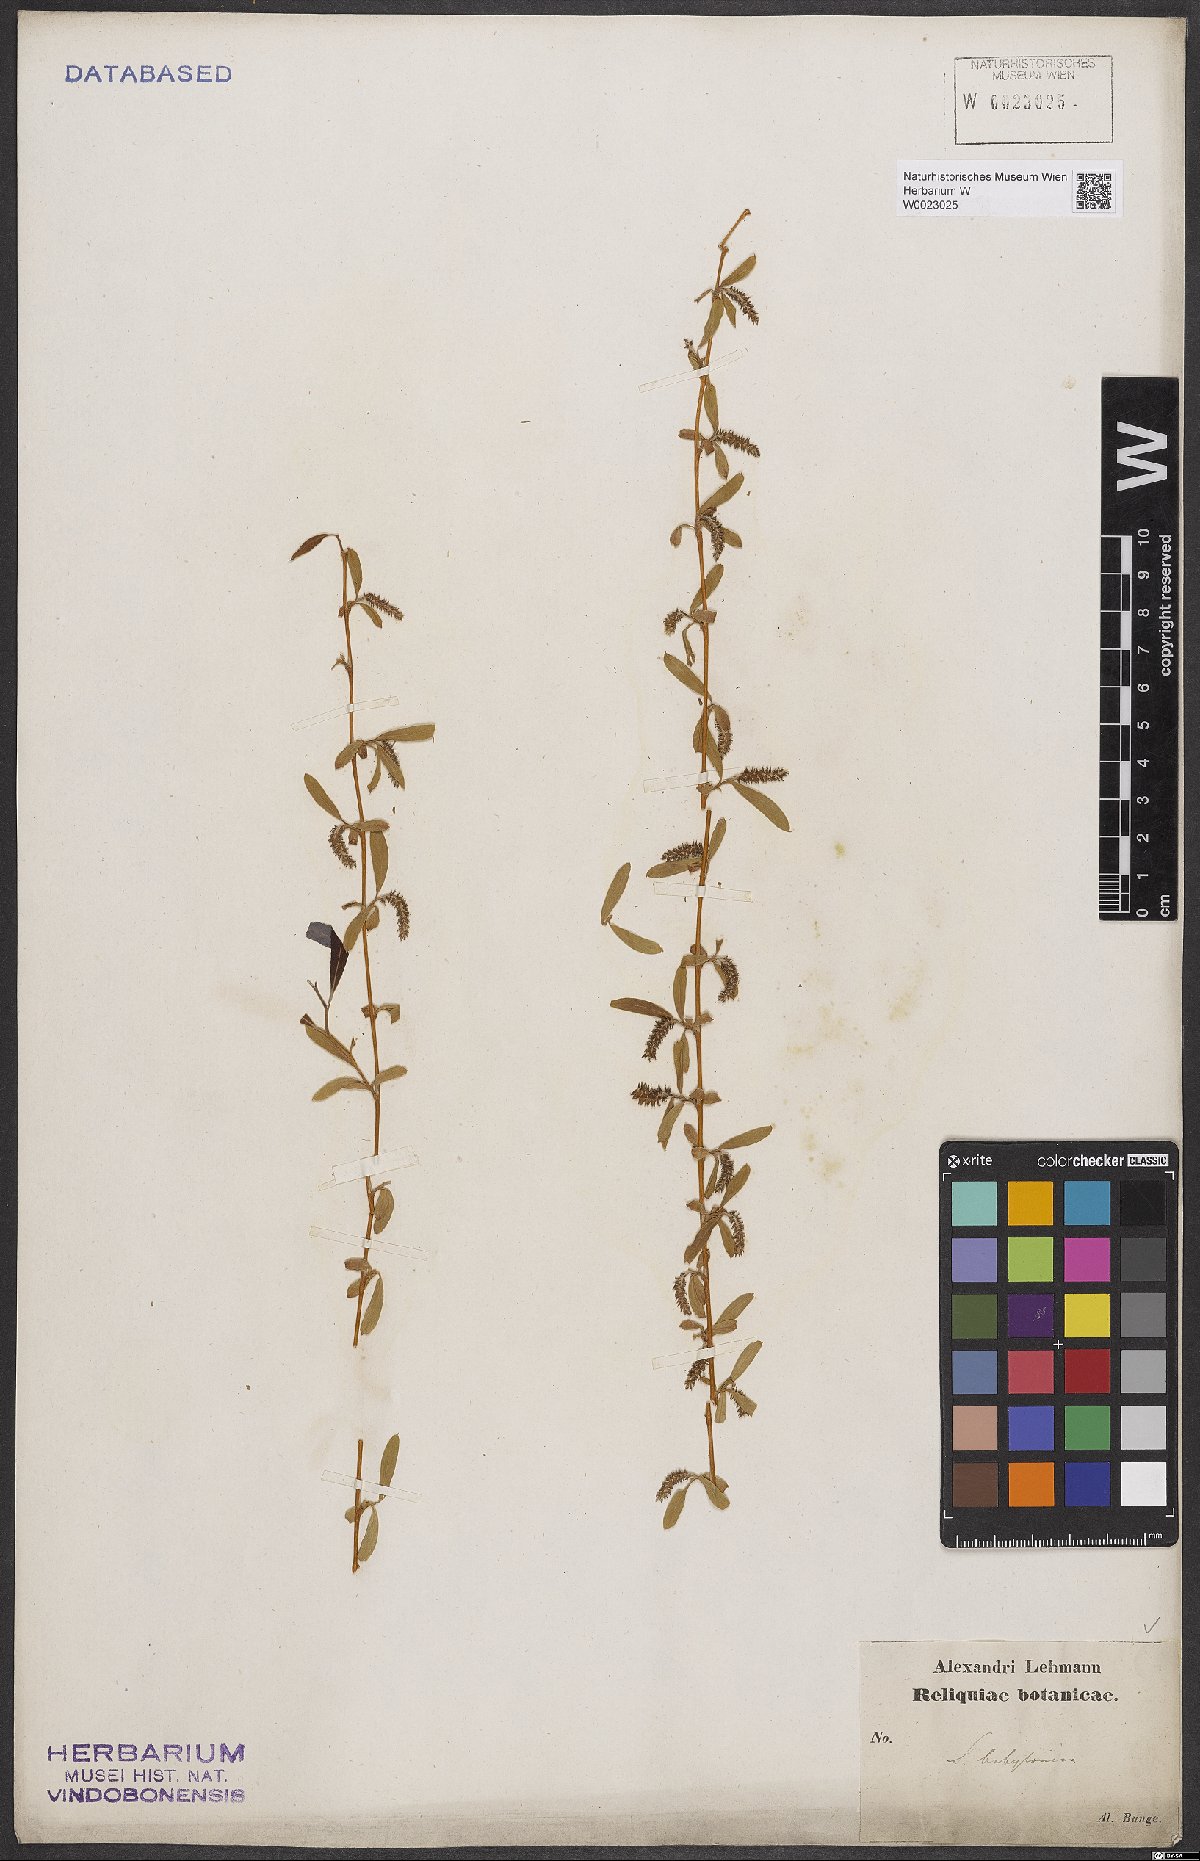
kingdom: Plantae
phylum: Tracheophyta
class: Magnoliopsida
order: Malpighiales
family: Salicaceae
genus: Salix
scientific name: Salix babylonica
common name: Weeping willow
